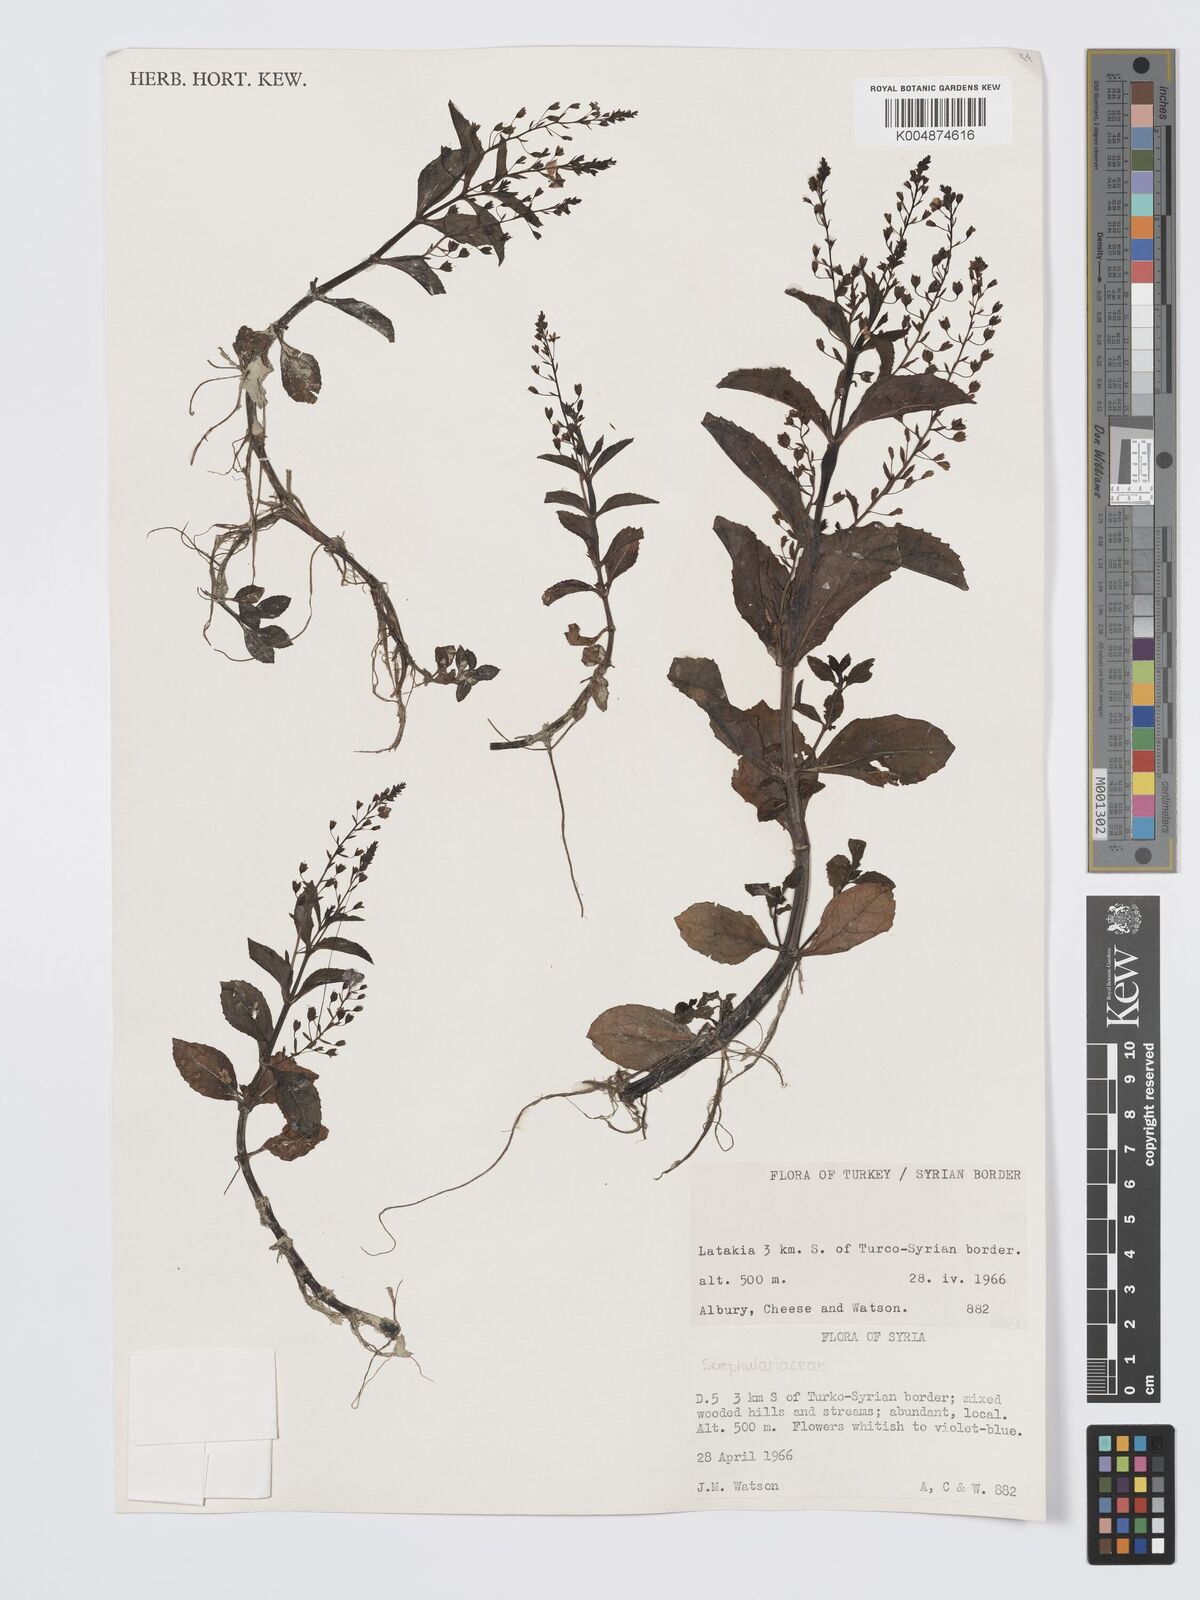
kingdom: Plantae
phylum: Tracheophyta
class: Magnoliopsida
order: Lamiales
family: Plantaginaceae
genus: Veronica
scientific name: Veronica
